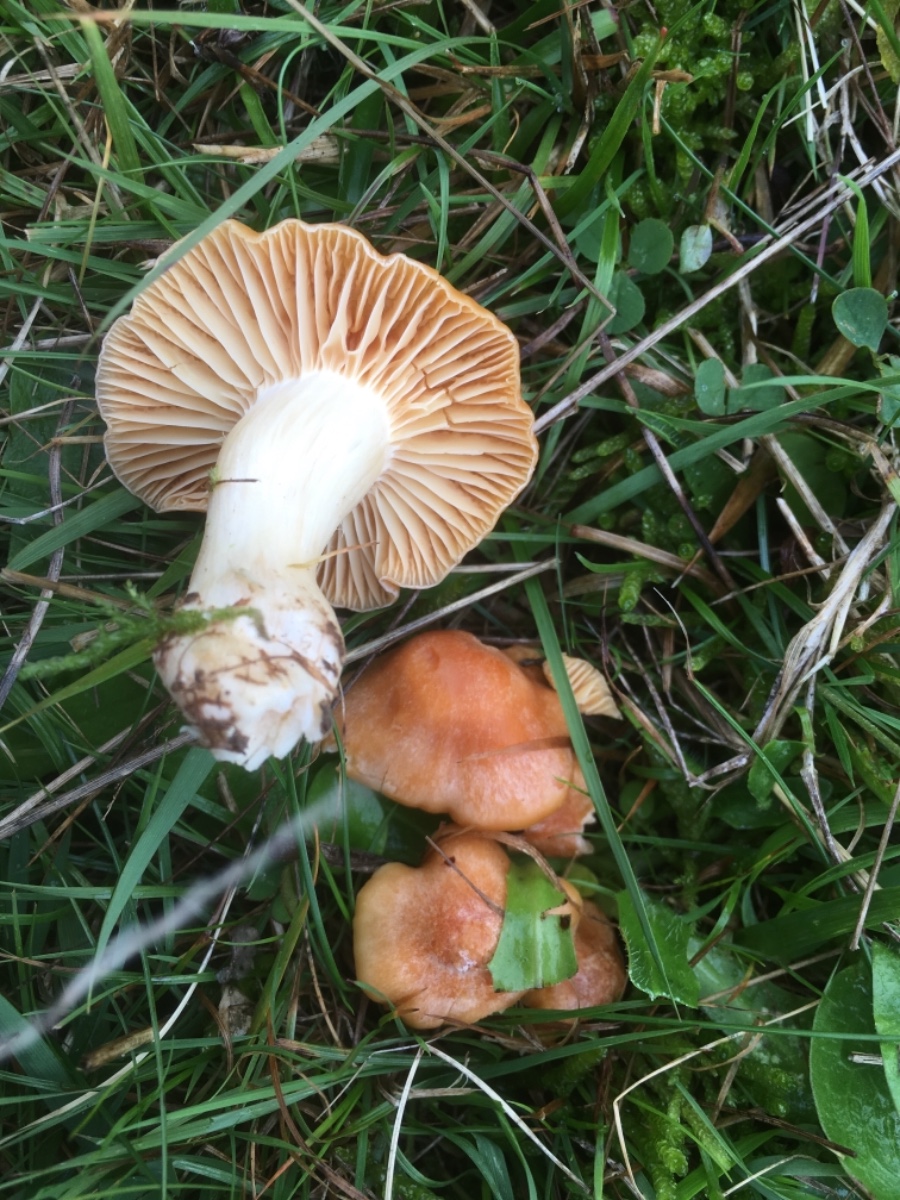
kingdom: Fungi
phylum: Basidiomycota
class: Agaricomycetes
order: Agaricales
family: Hygrophoraceae
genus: Cuphophyllus
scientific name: Cuphophyllus pratensis
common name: eng-vokshat
